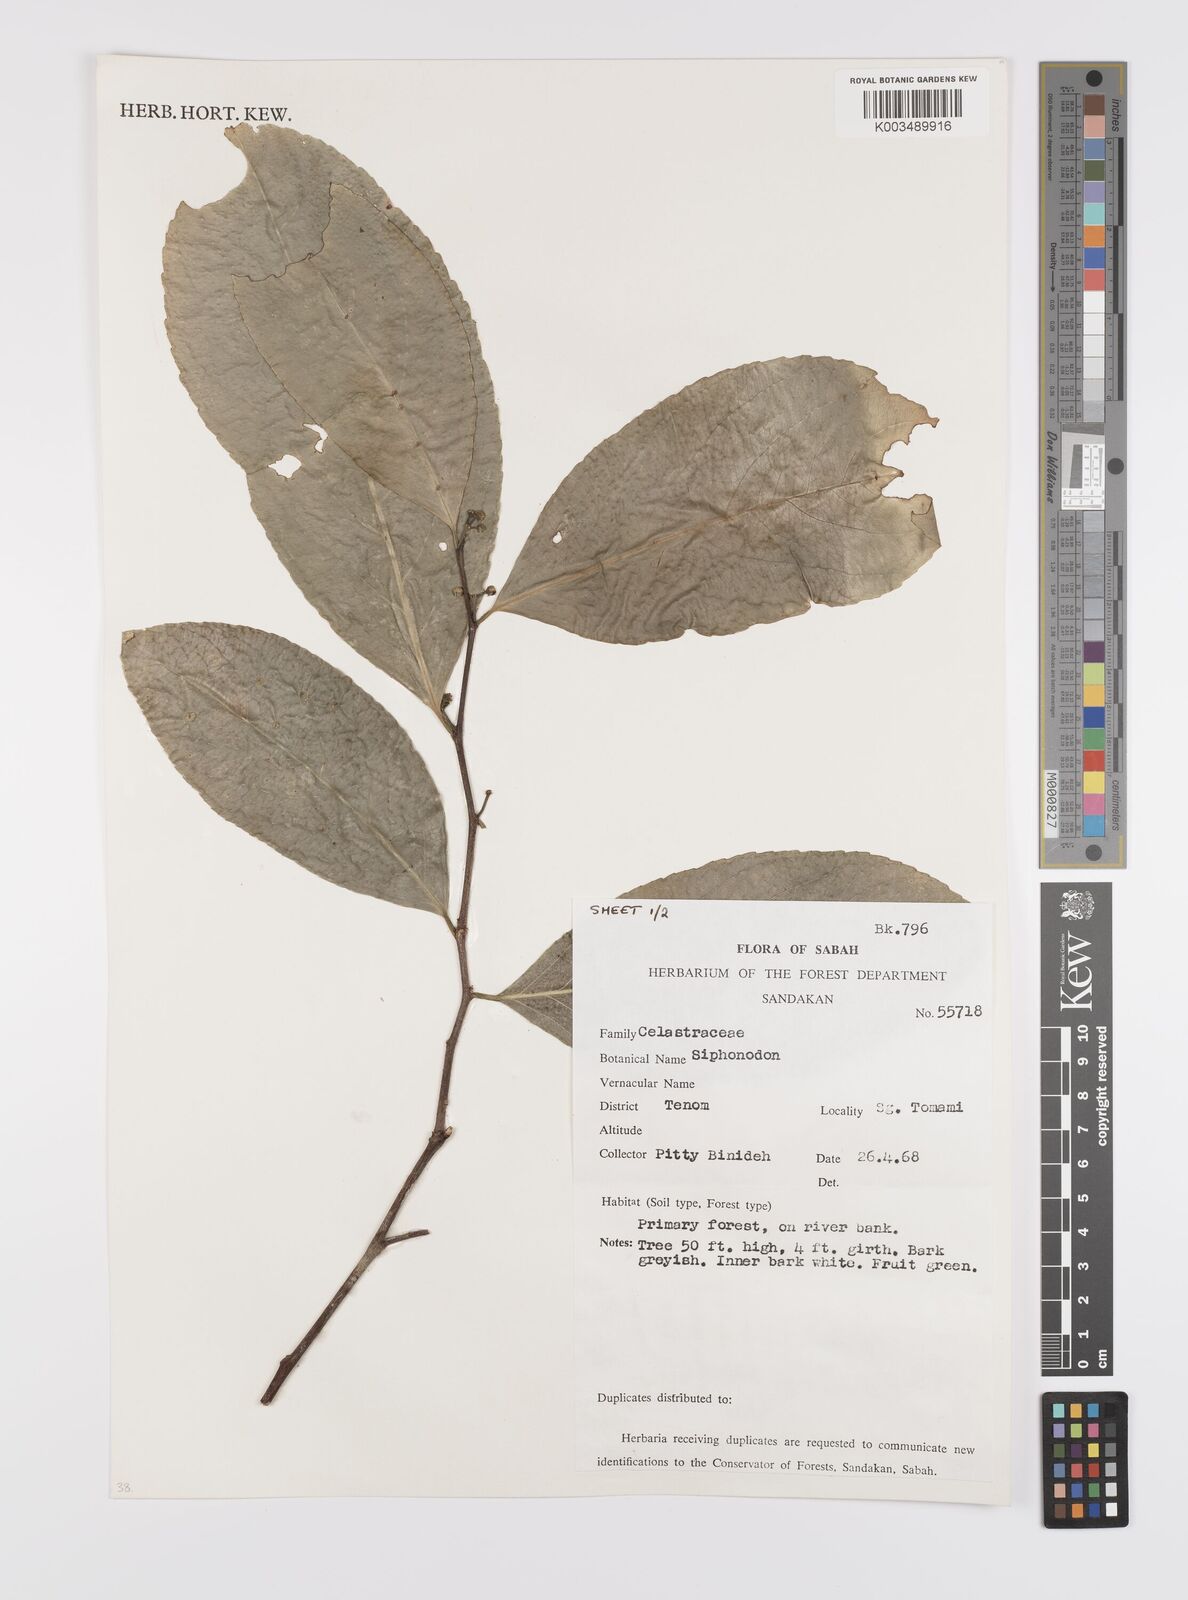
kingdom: Plantae
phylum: Tracheophyta
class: Magnoliopsida
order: Celastrales
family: Celastraceae
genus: Siphonodon
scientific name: Siphonodon
